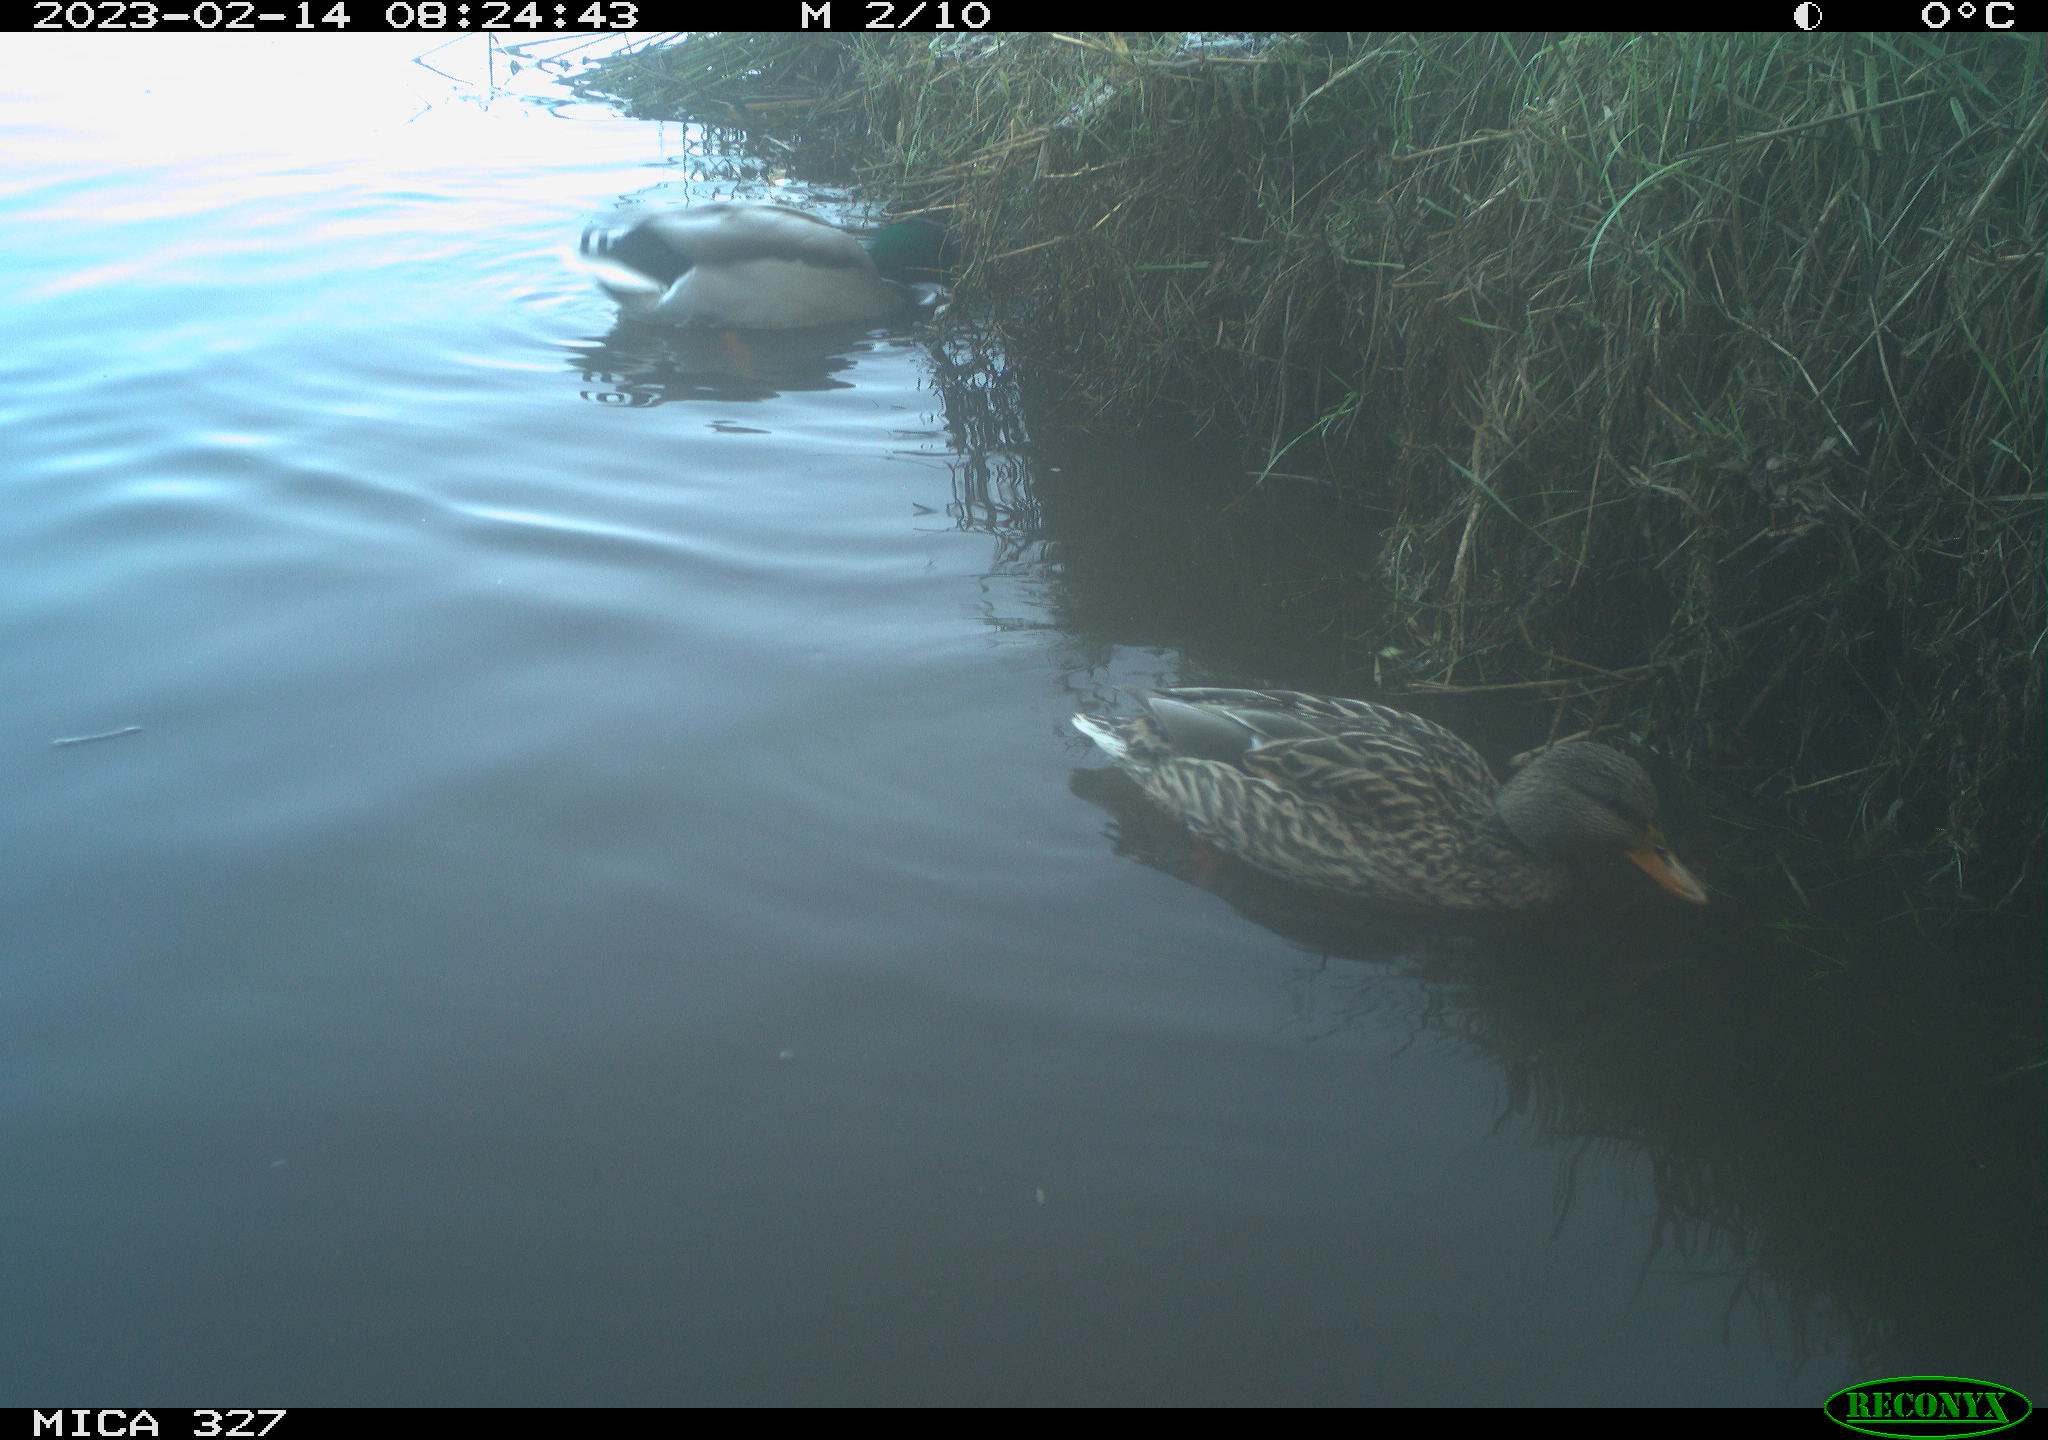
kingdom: Animalia
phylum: Chordata
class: Aves
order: Anseriformes
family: Anatidae
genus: Anas
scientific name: Anas
